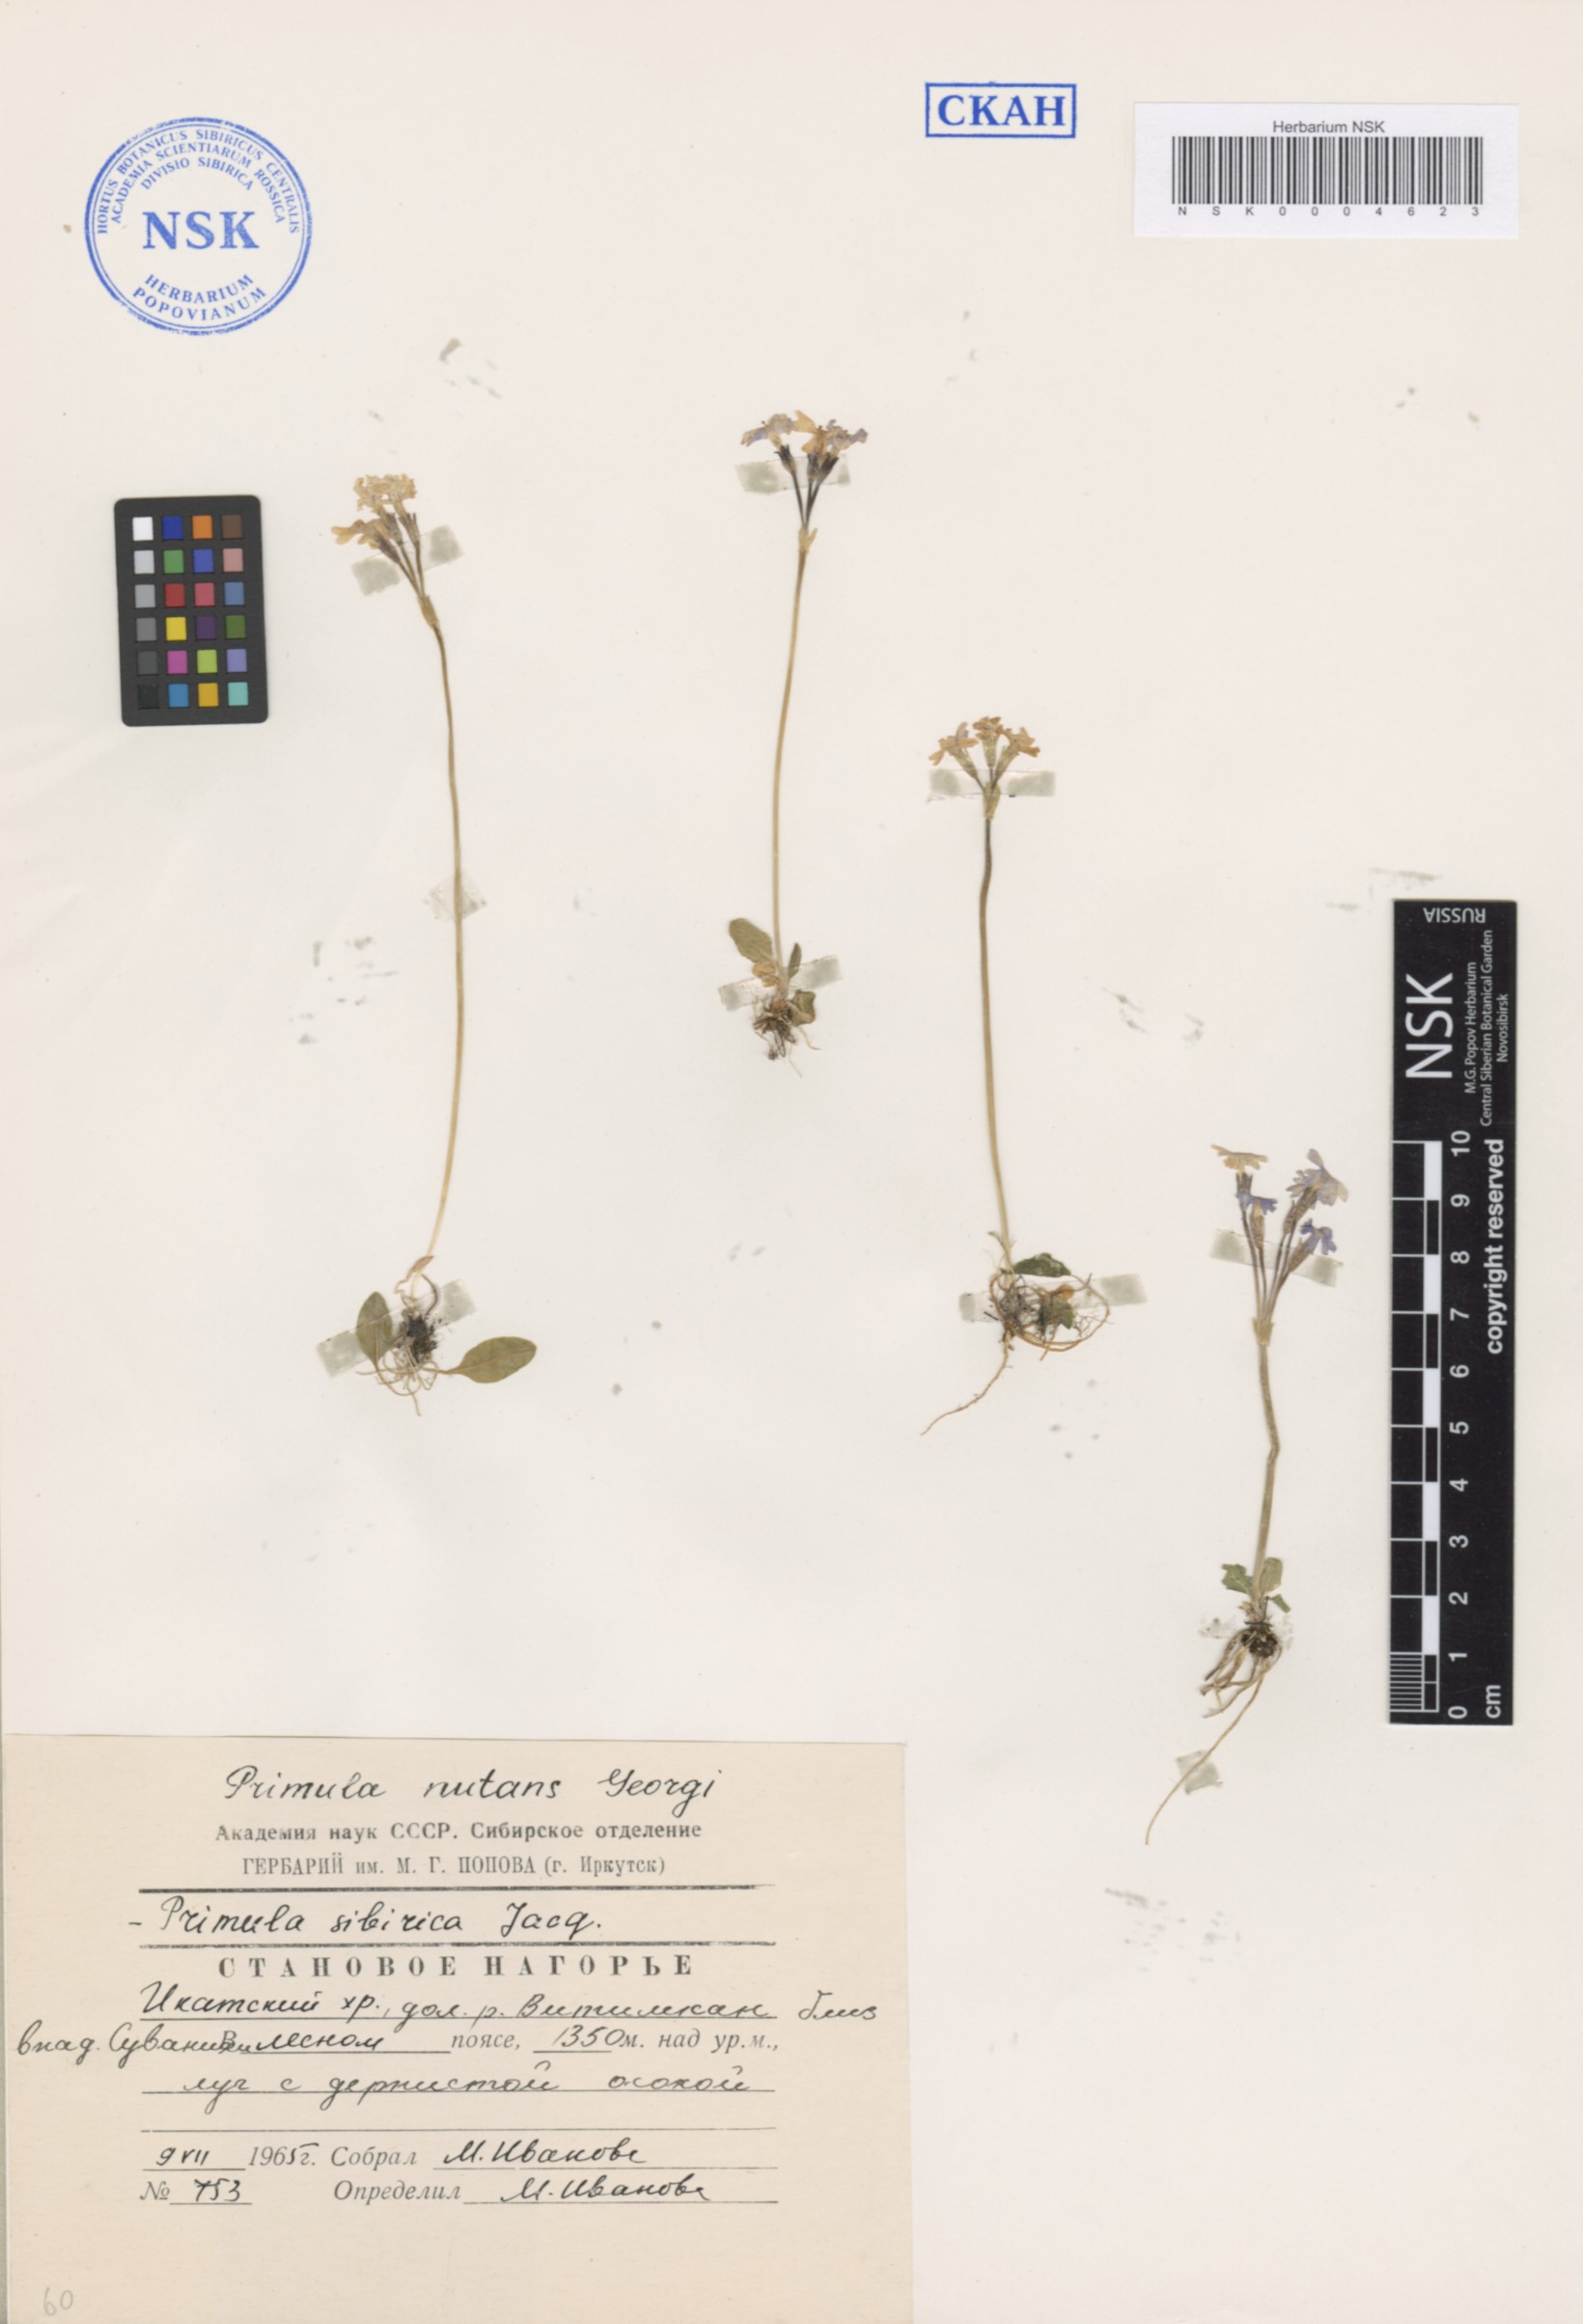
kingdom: Plantae
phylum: Tracheophyta
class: Magnoliopsida
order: Ericales
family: Primulaceae
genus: Primula
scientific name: Primula nutans
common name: Siberian primrose
